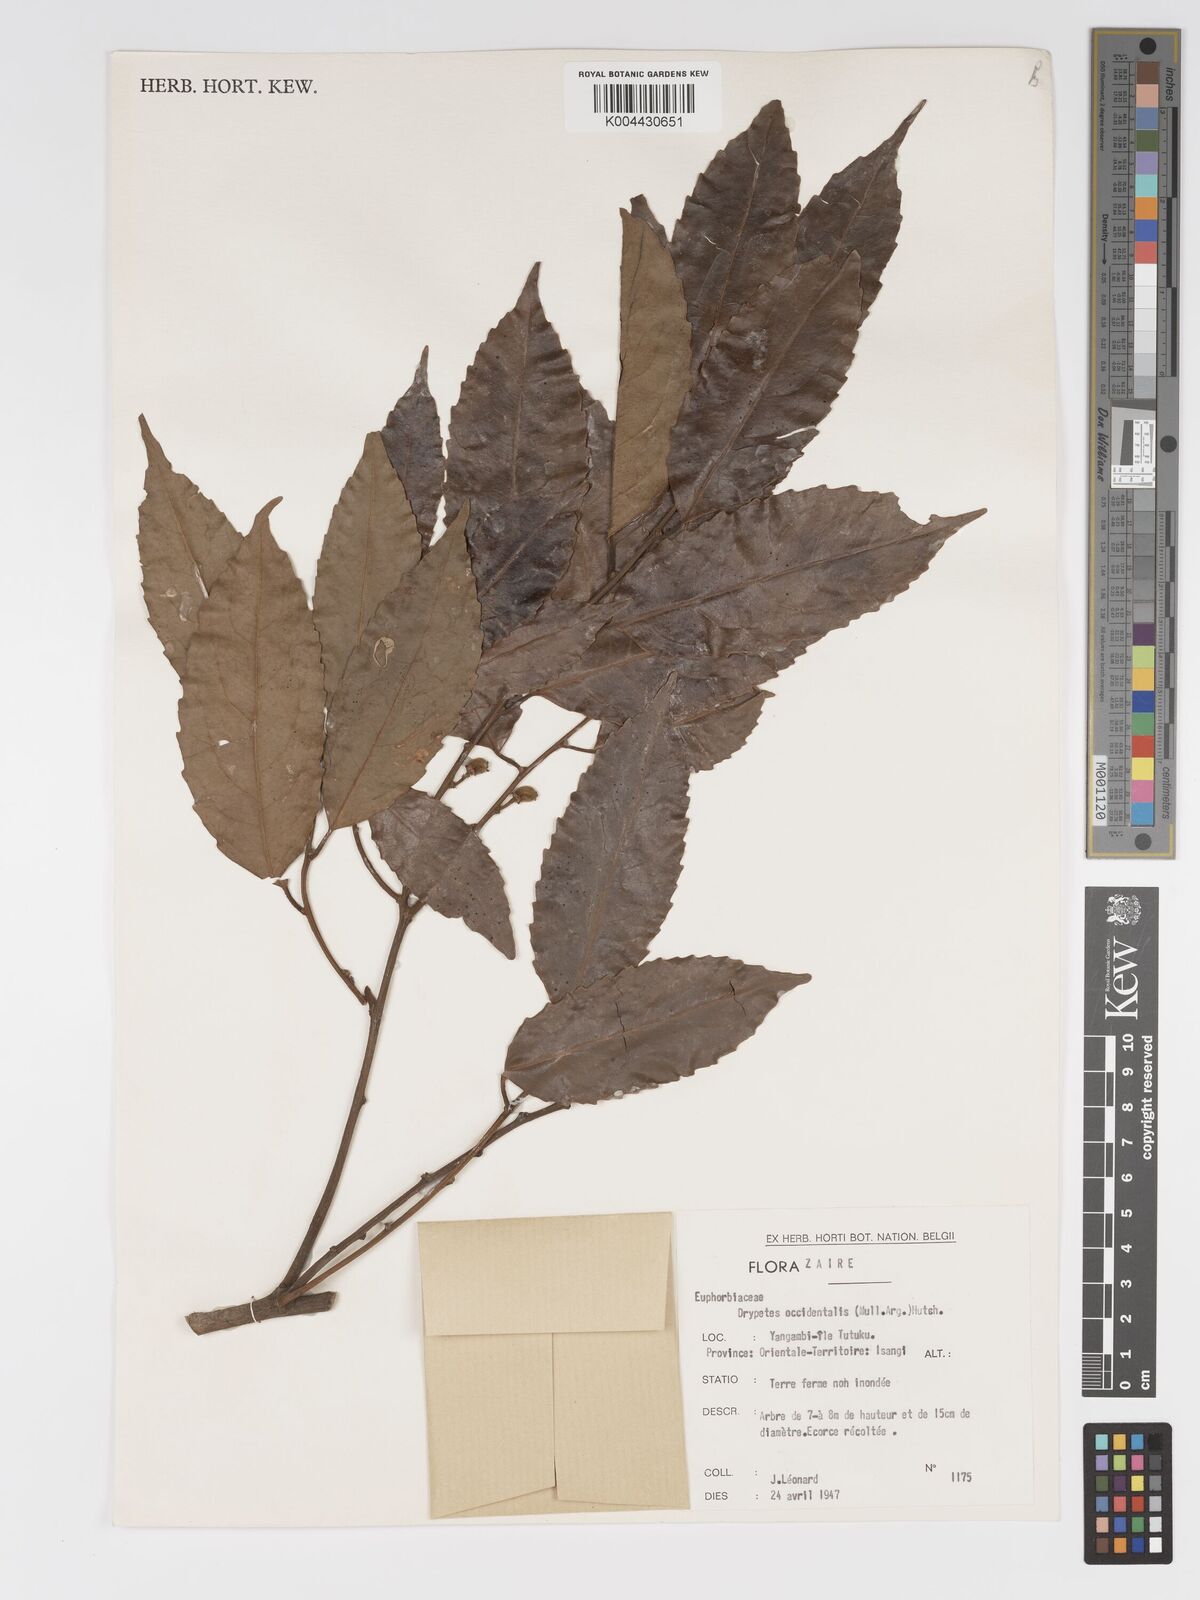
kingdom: Plantae
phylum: Tracheophyta
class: Magnoliopsida
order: Malpighiales
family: Putranjivaceae
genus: Drypetes
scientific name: Drypetes occidentalis
